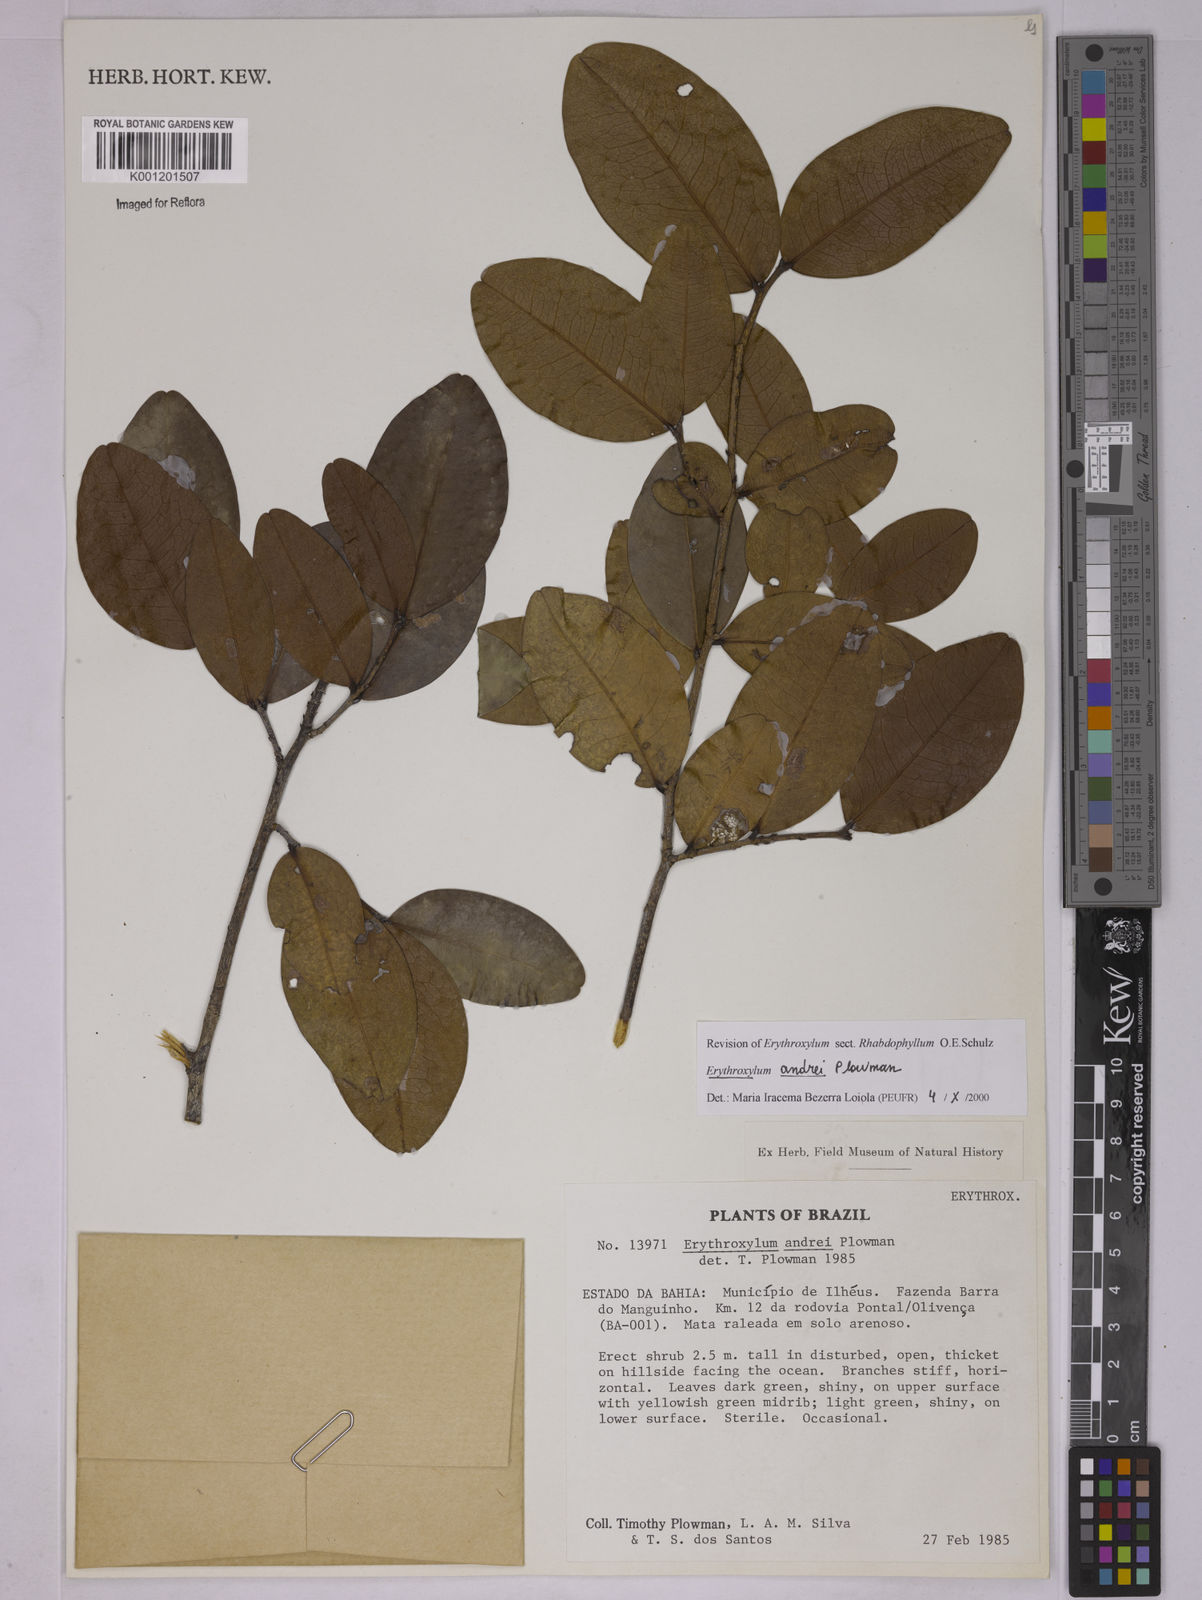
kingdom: Plantae
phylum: Tracheophyta
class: Magnoliopsida
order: Malpighiales
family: Erythroxylaceae
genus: Erythroxylum
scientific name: Erythroxylum andrei
